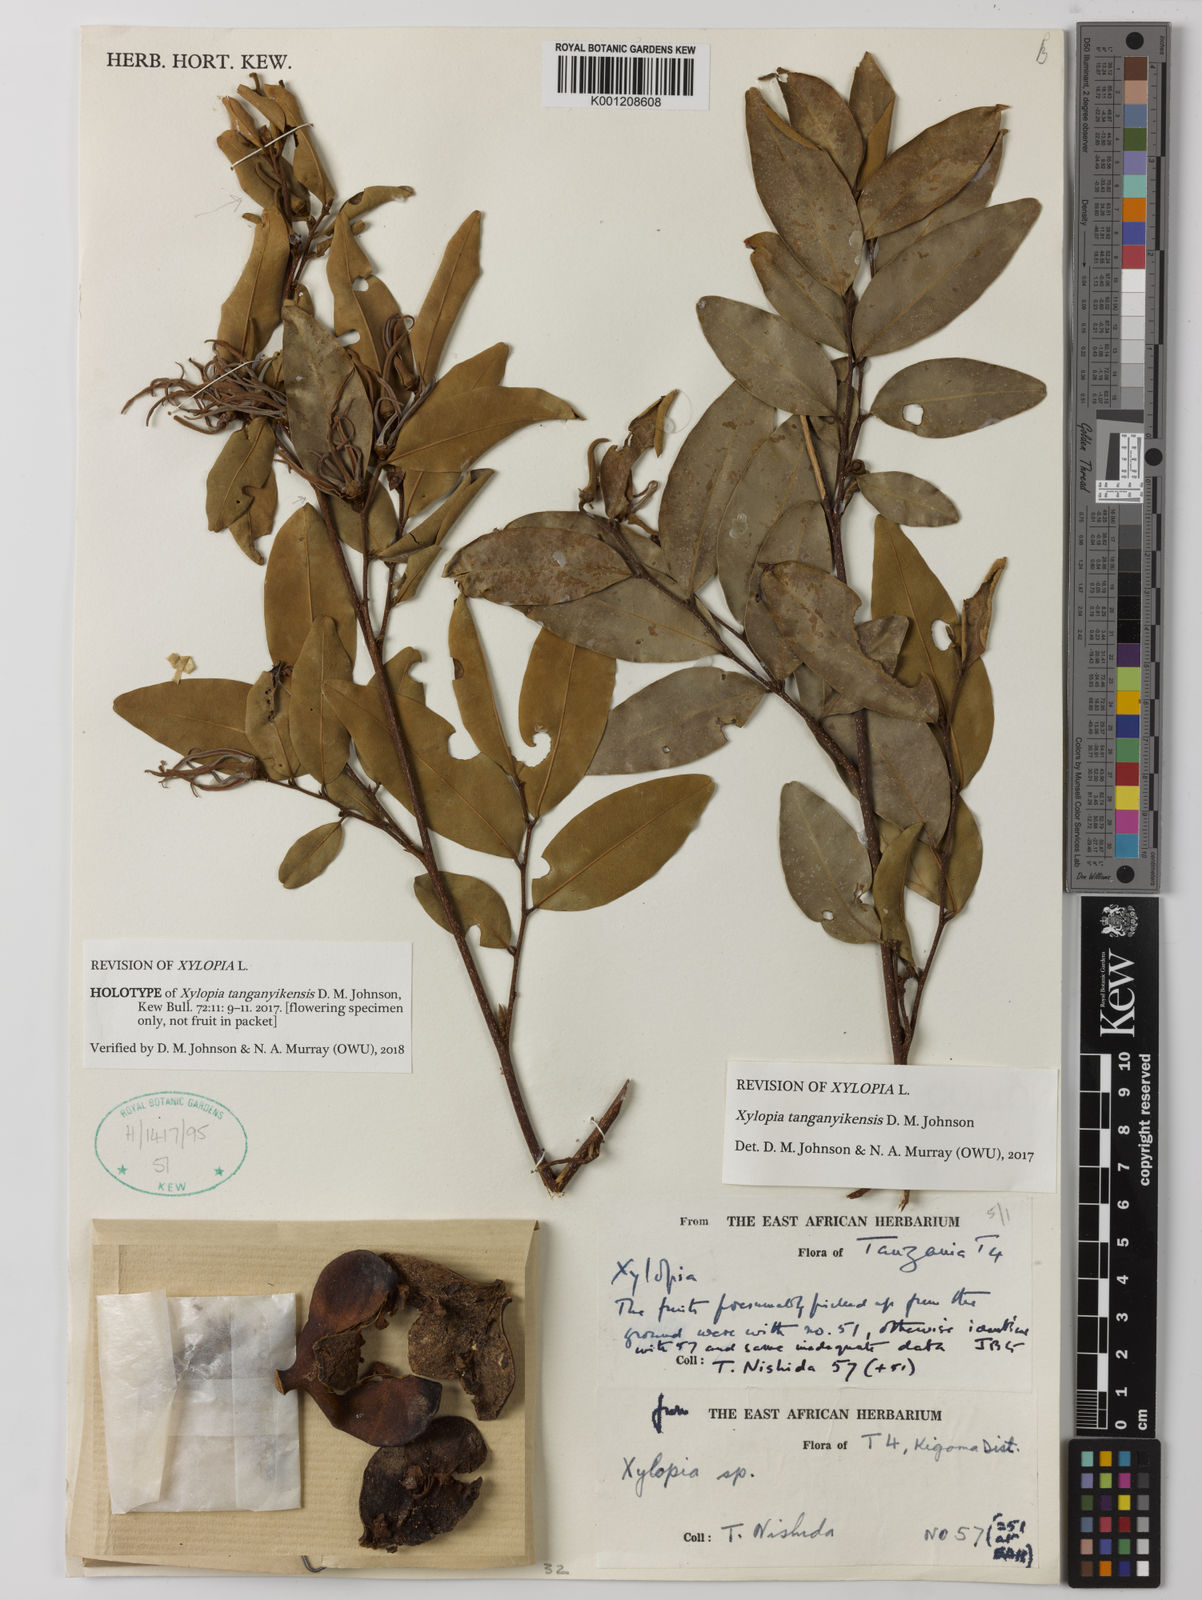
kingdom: Plantae
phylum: Tracheophyta
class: Magnoliopsida
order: Magnoliales
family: Annonaceae
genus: Xylopia
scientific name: Xylopia tanganyikensis
